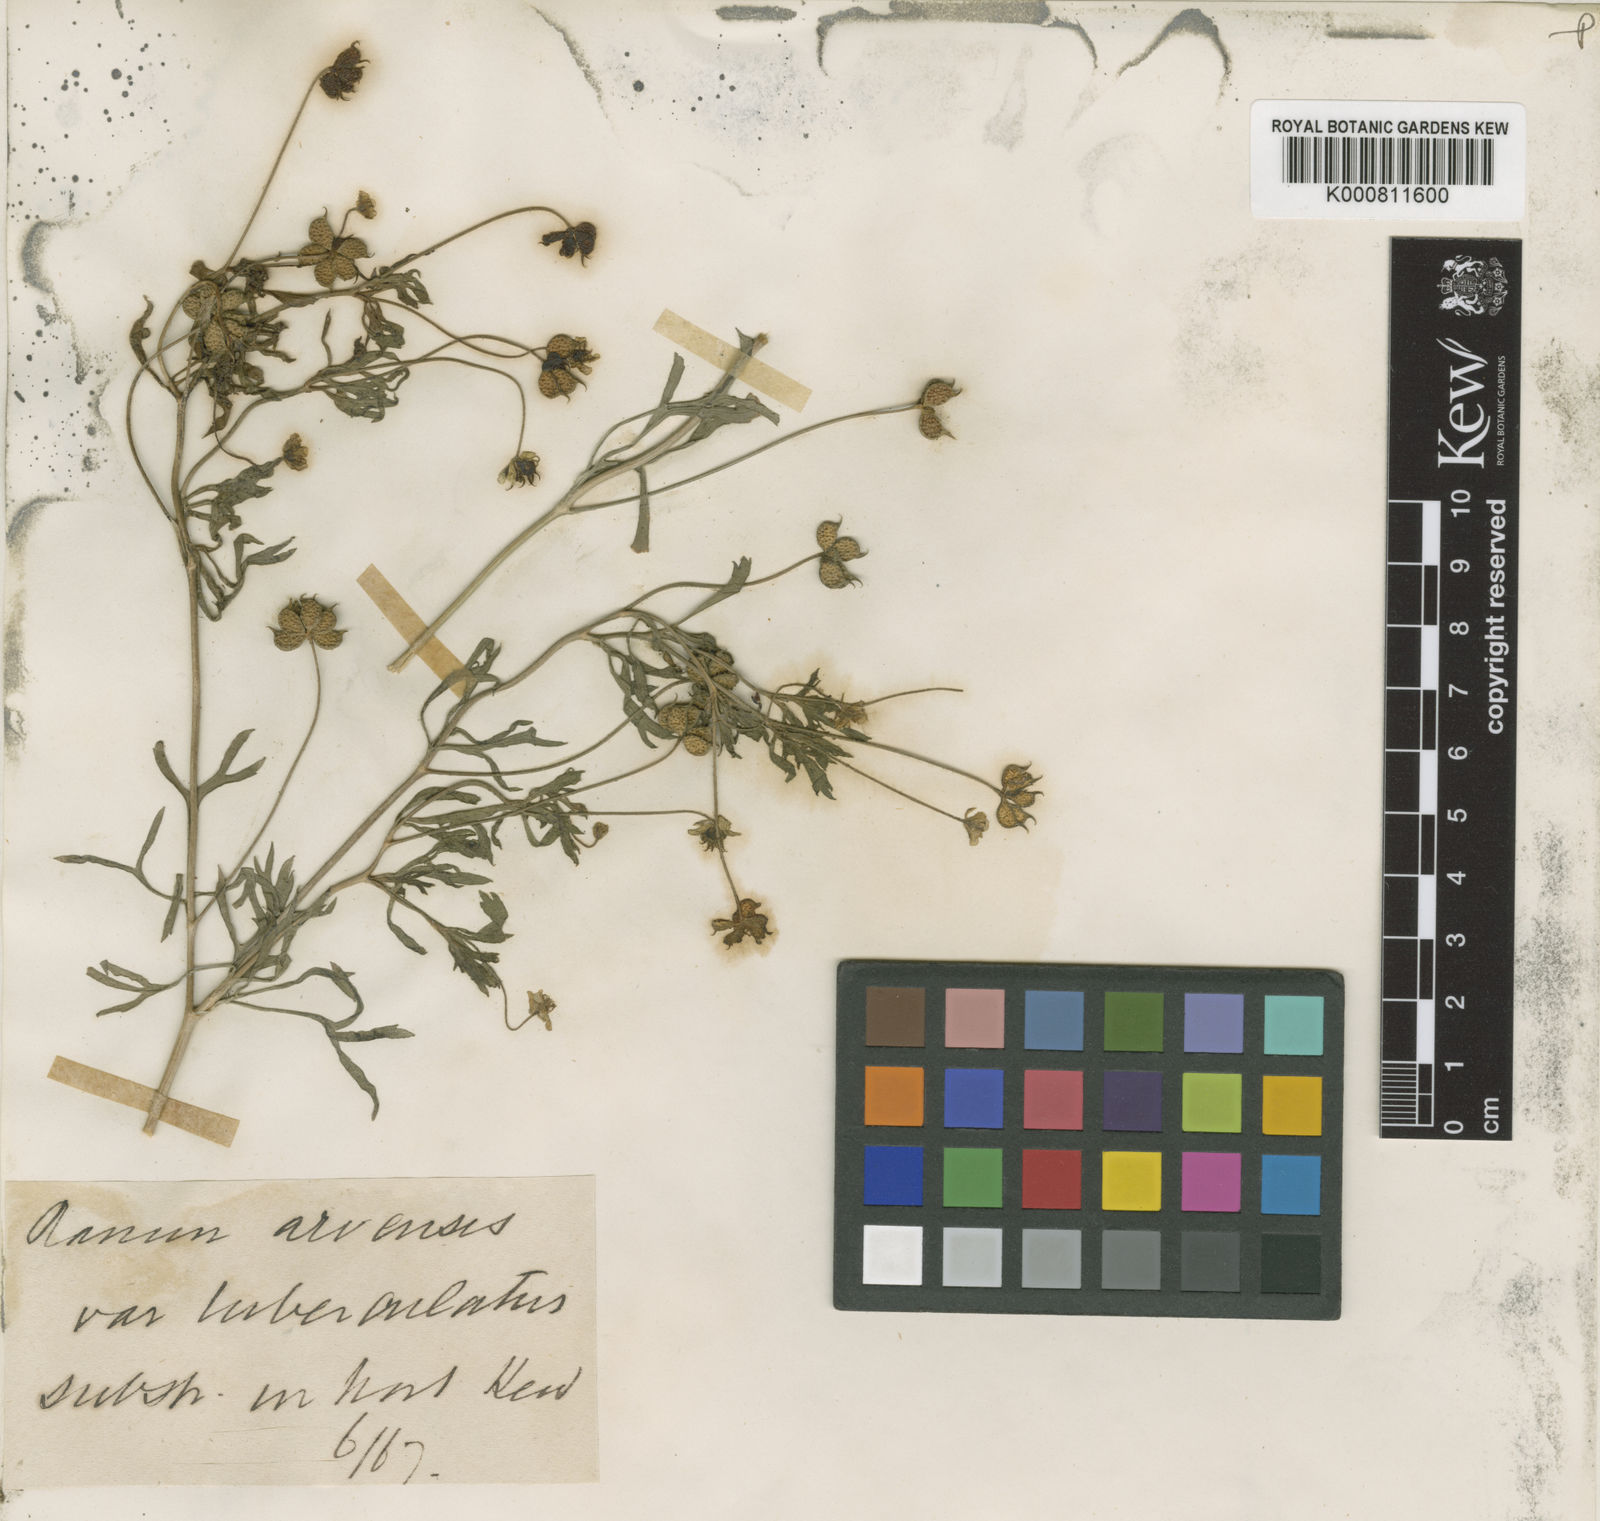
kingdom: Plantae
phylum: Tracheophyta
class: Magnoliopsida
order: Ranunculales
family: Ranunculaceae
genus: Ranunculus
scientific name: Ranunculus arvensis
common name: Corn buttercup
